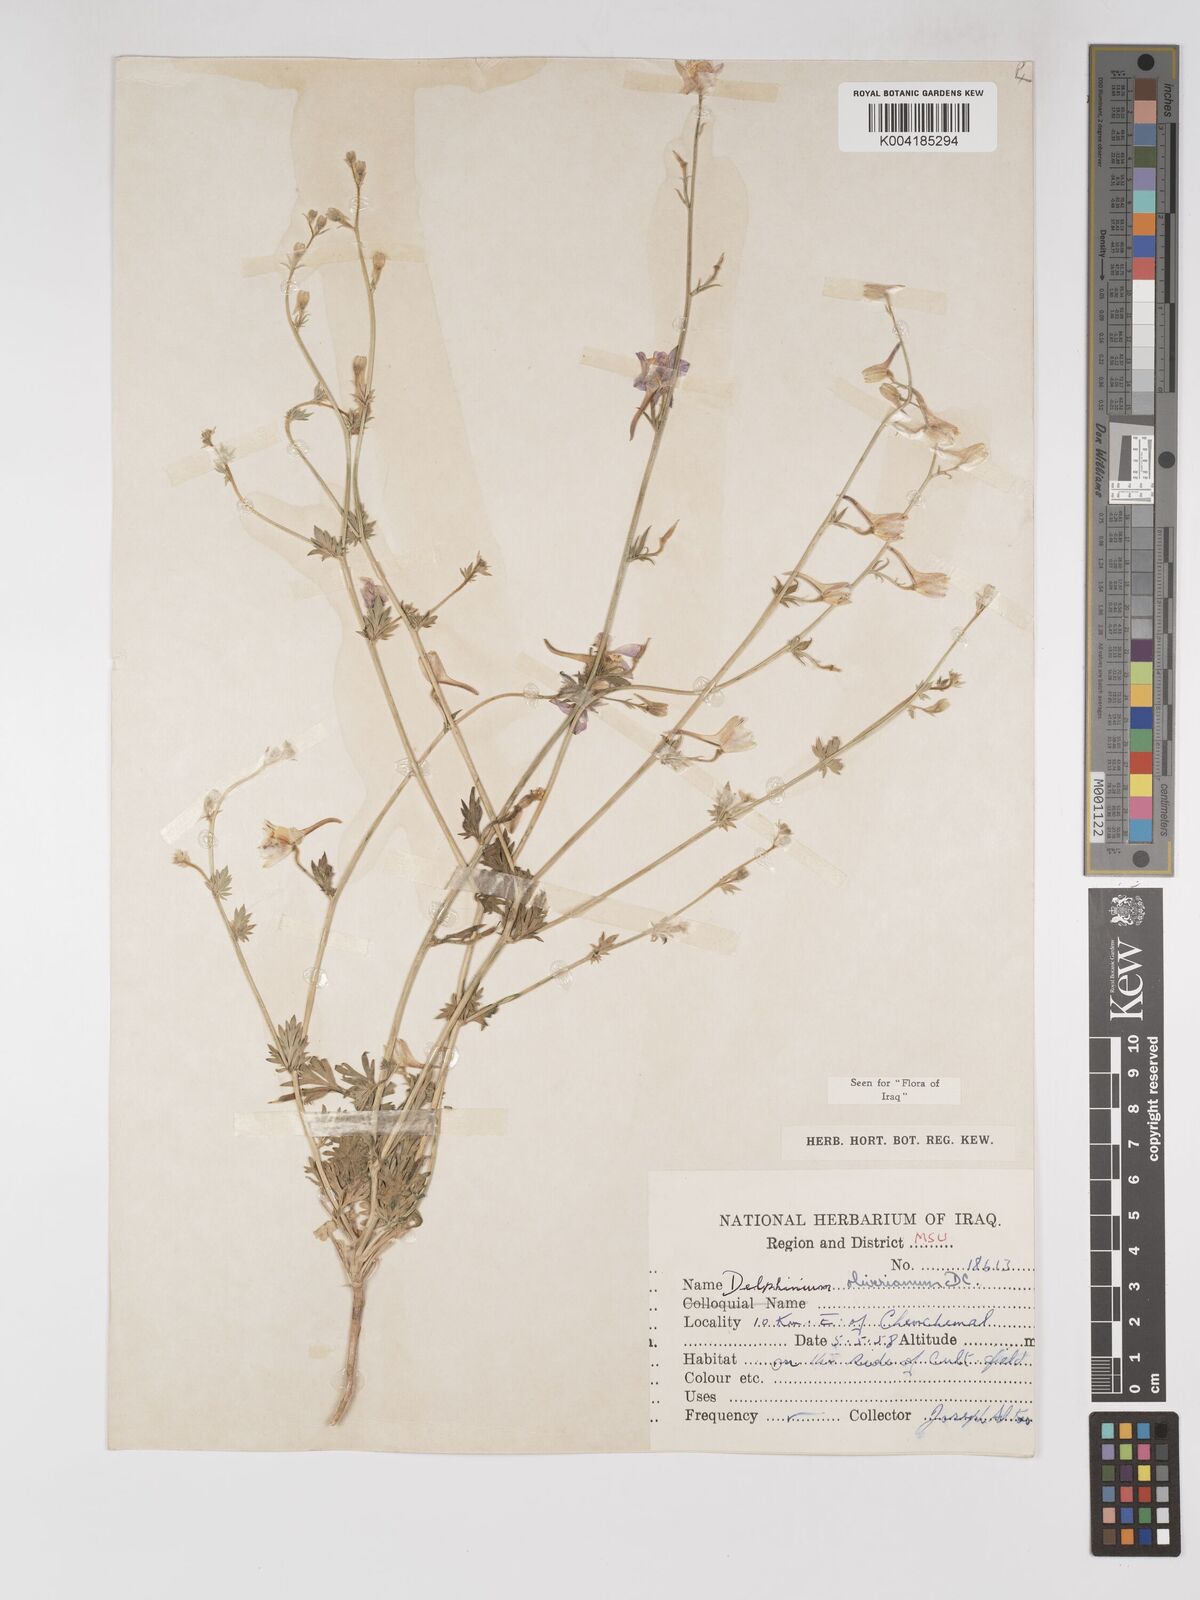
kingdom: Plantae
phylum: Tracheophyta
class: Magnoliopsida
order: Ranunculales
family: Ranunculaceae
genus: Delphinium
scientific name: Delphinium oliverianum
